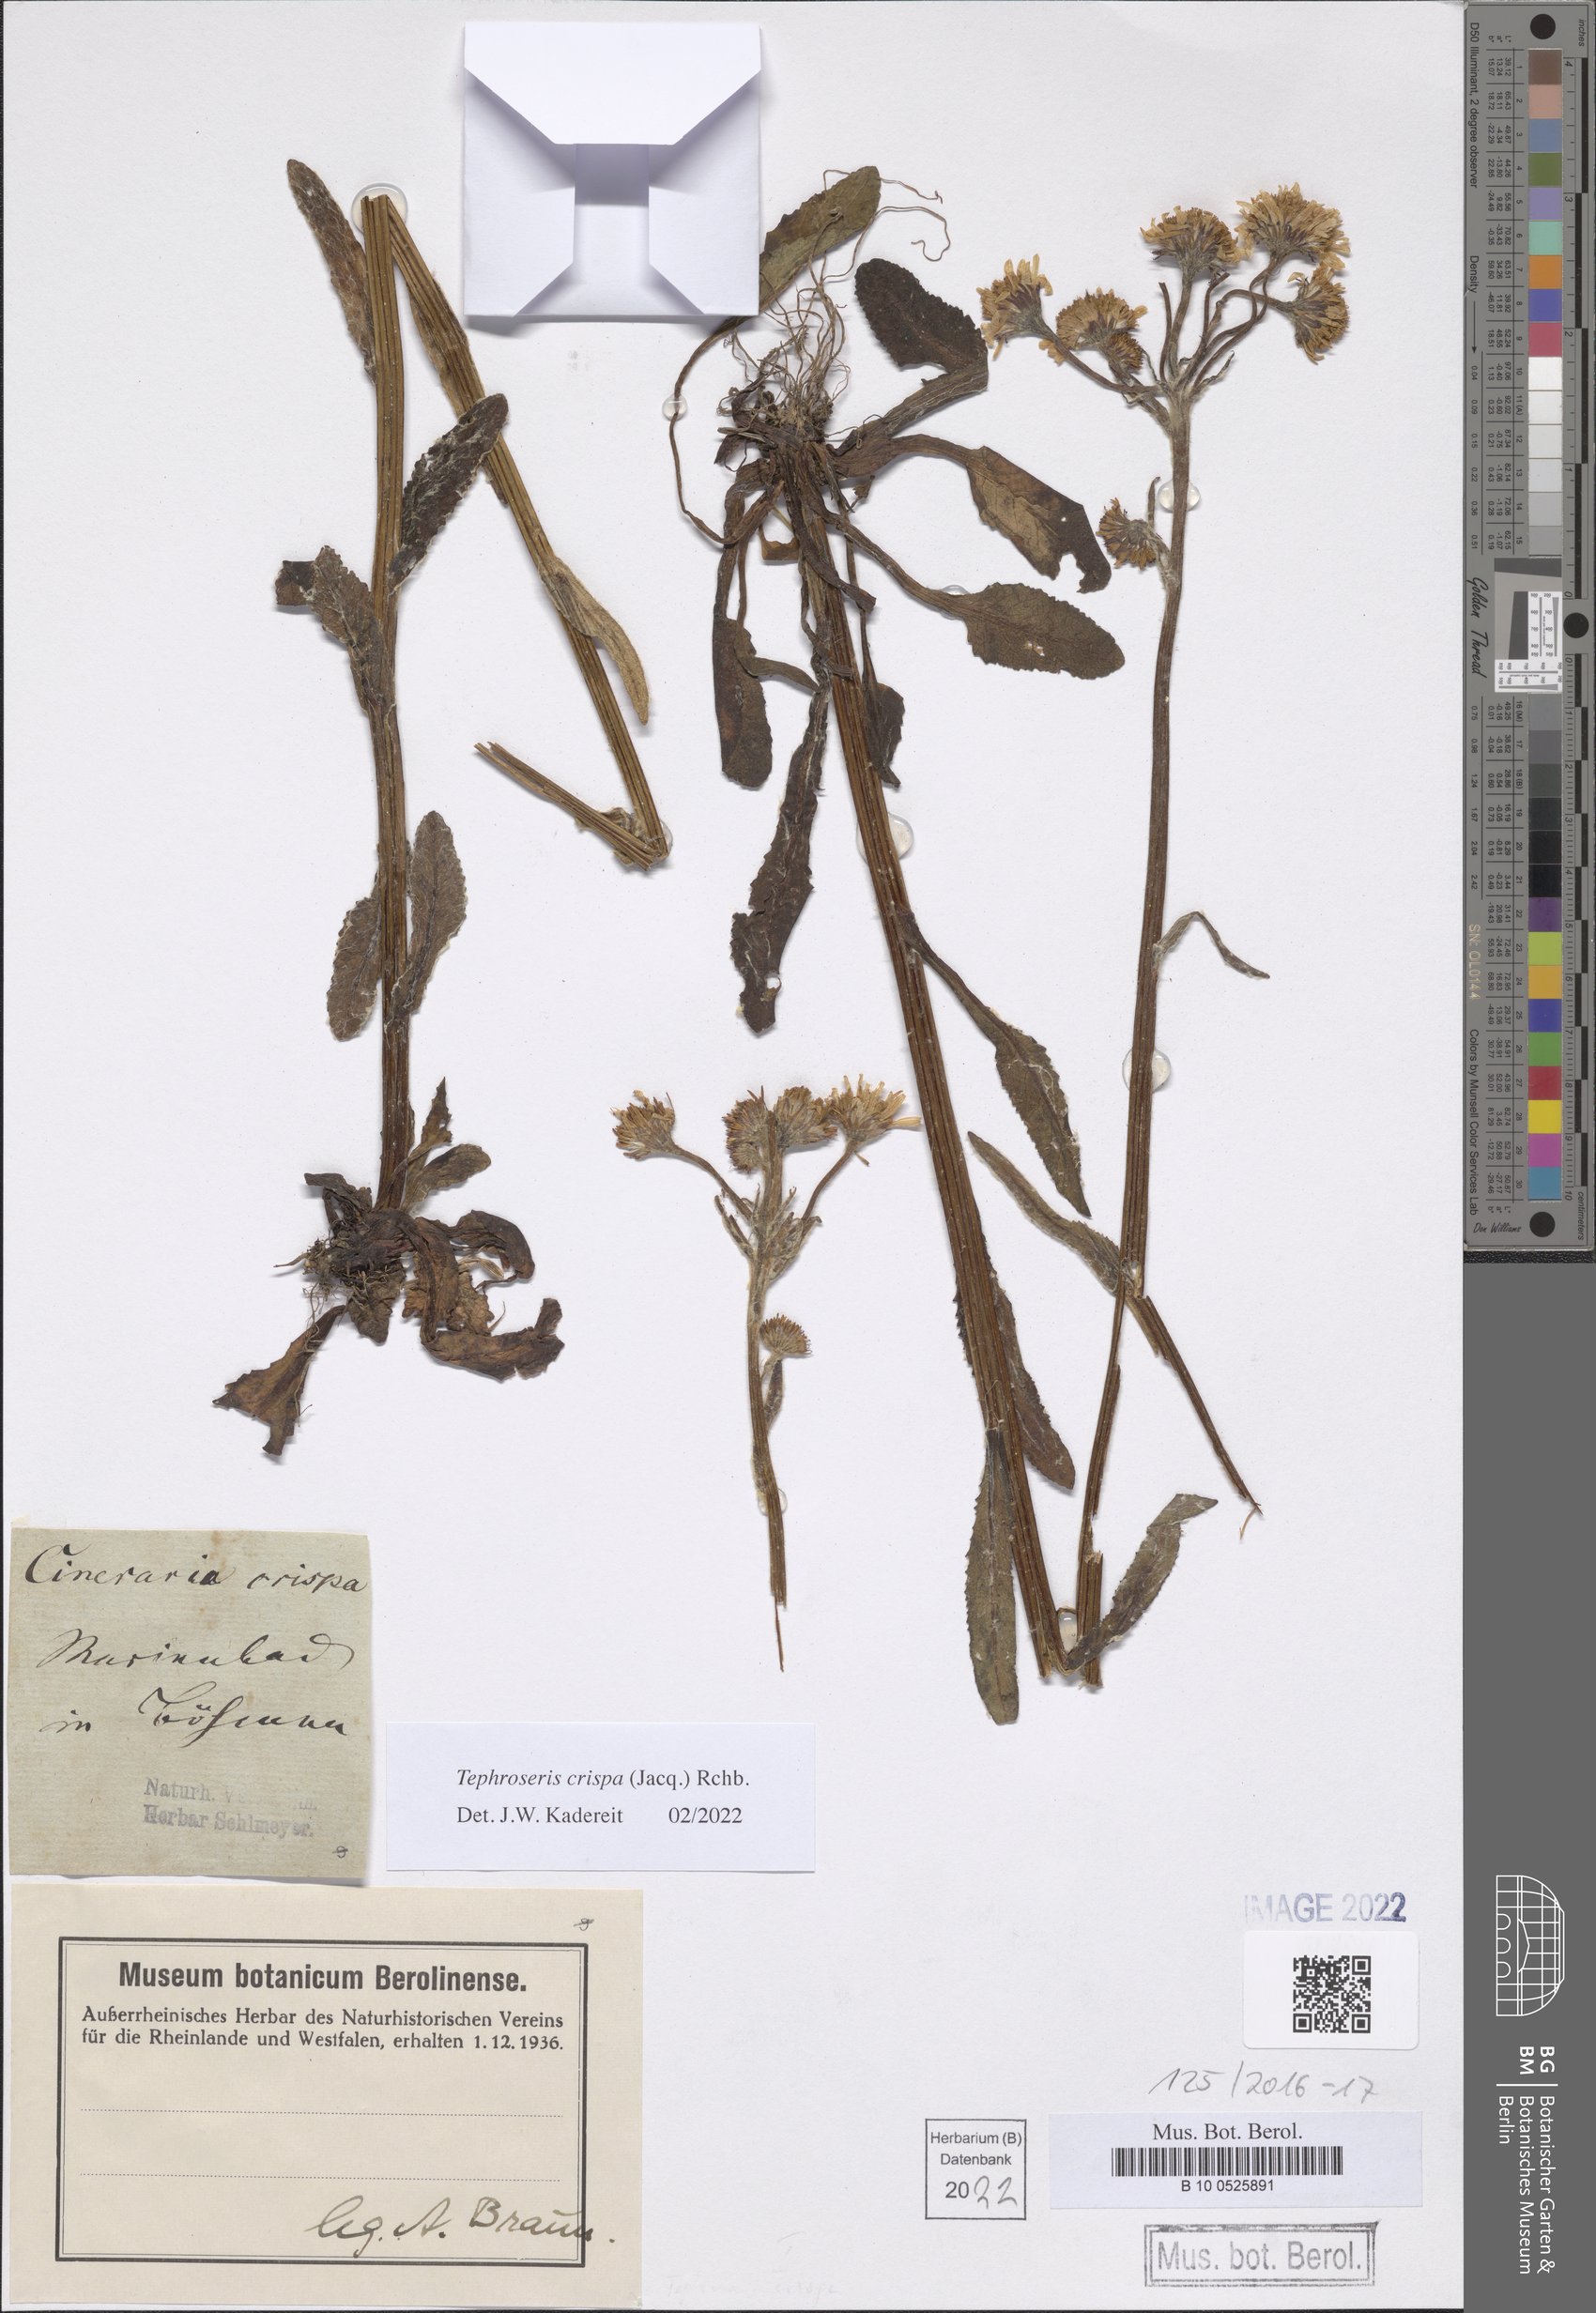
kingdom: Plantae
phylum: Tracheophyta
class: Magnoliopsida
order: Asterales
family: Asteraceae
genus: Tephroseris
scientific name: Tephroseris crispa
